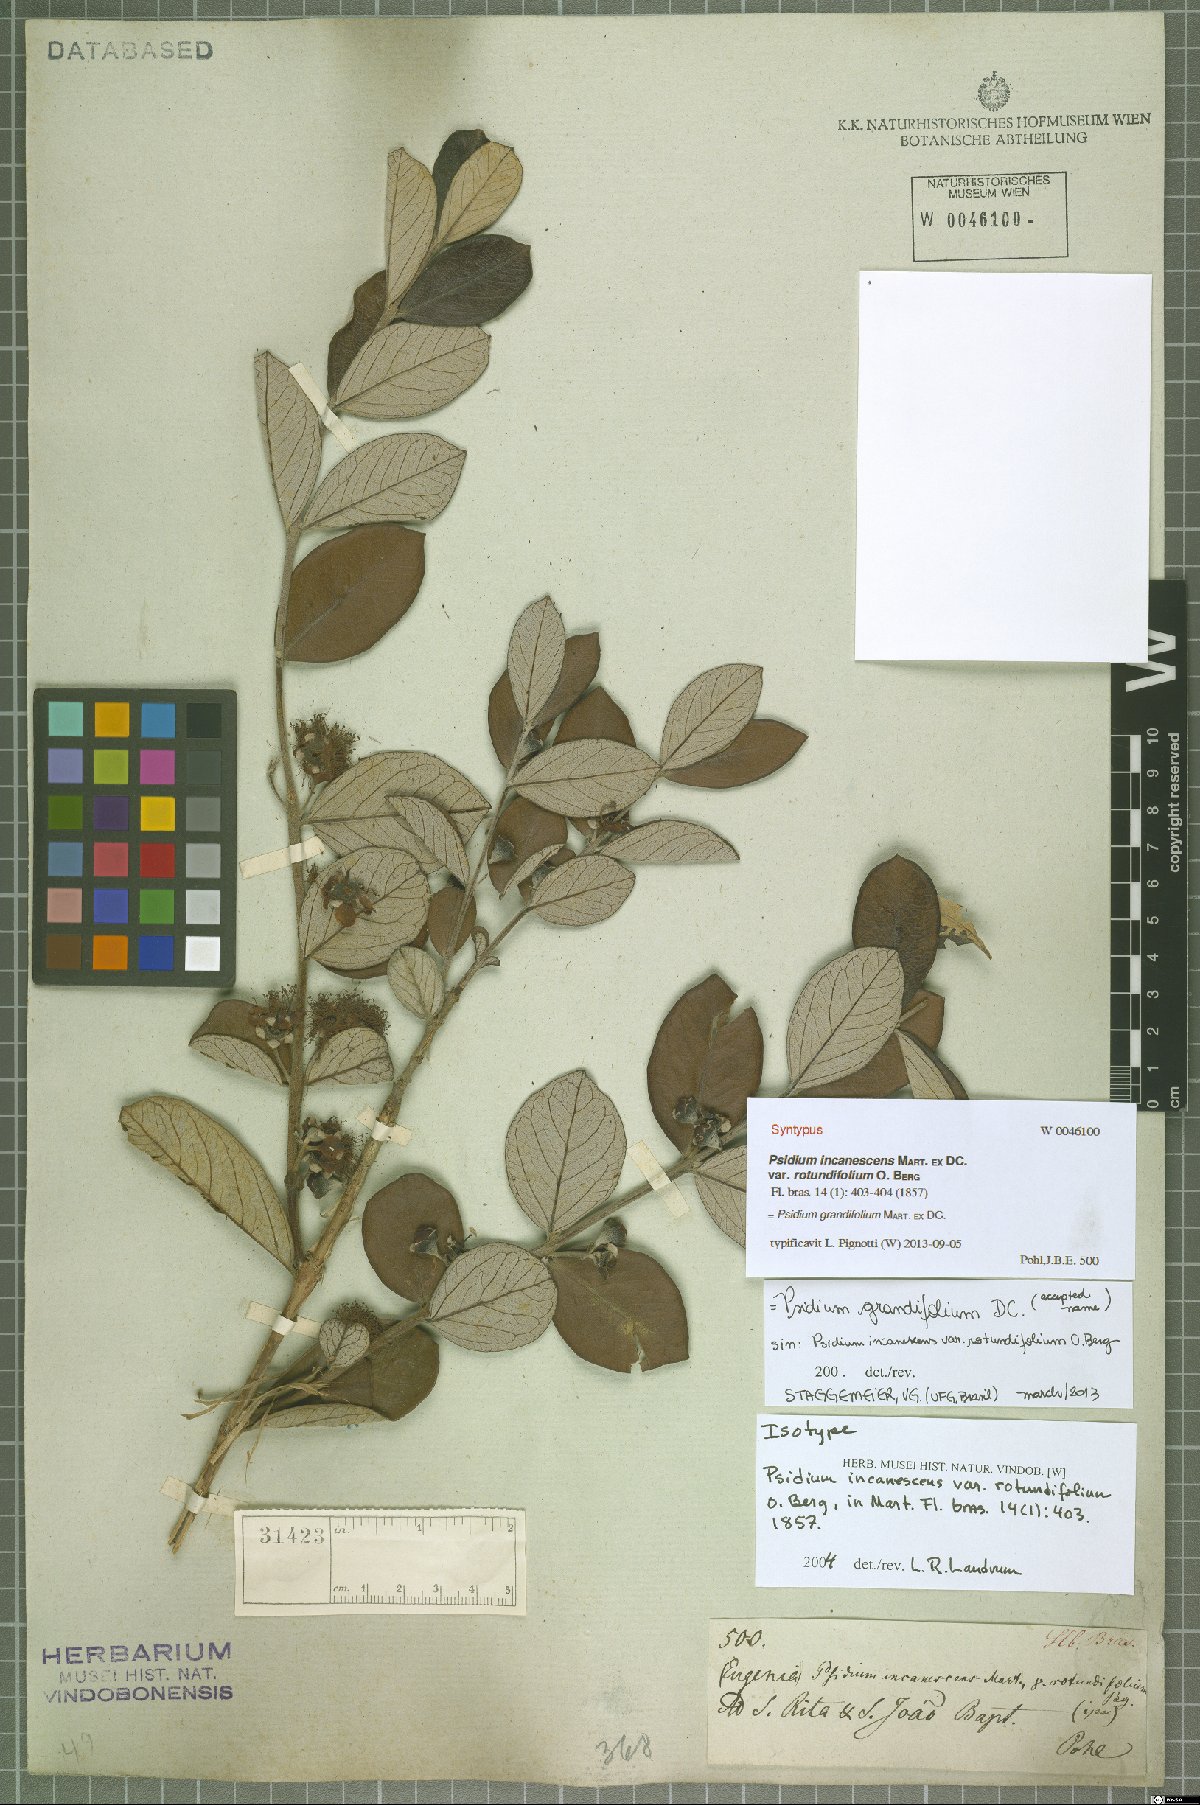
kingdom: Plantae
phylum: Tracheophyta
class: Magnoliopsida
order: Myrtales
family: Myrtaceae
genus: Psidium
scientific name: Psidium grandifolium
